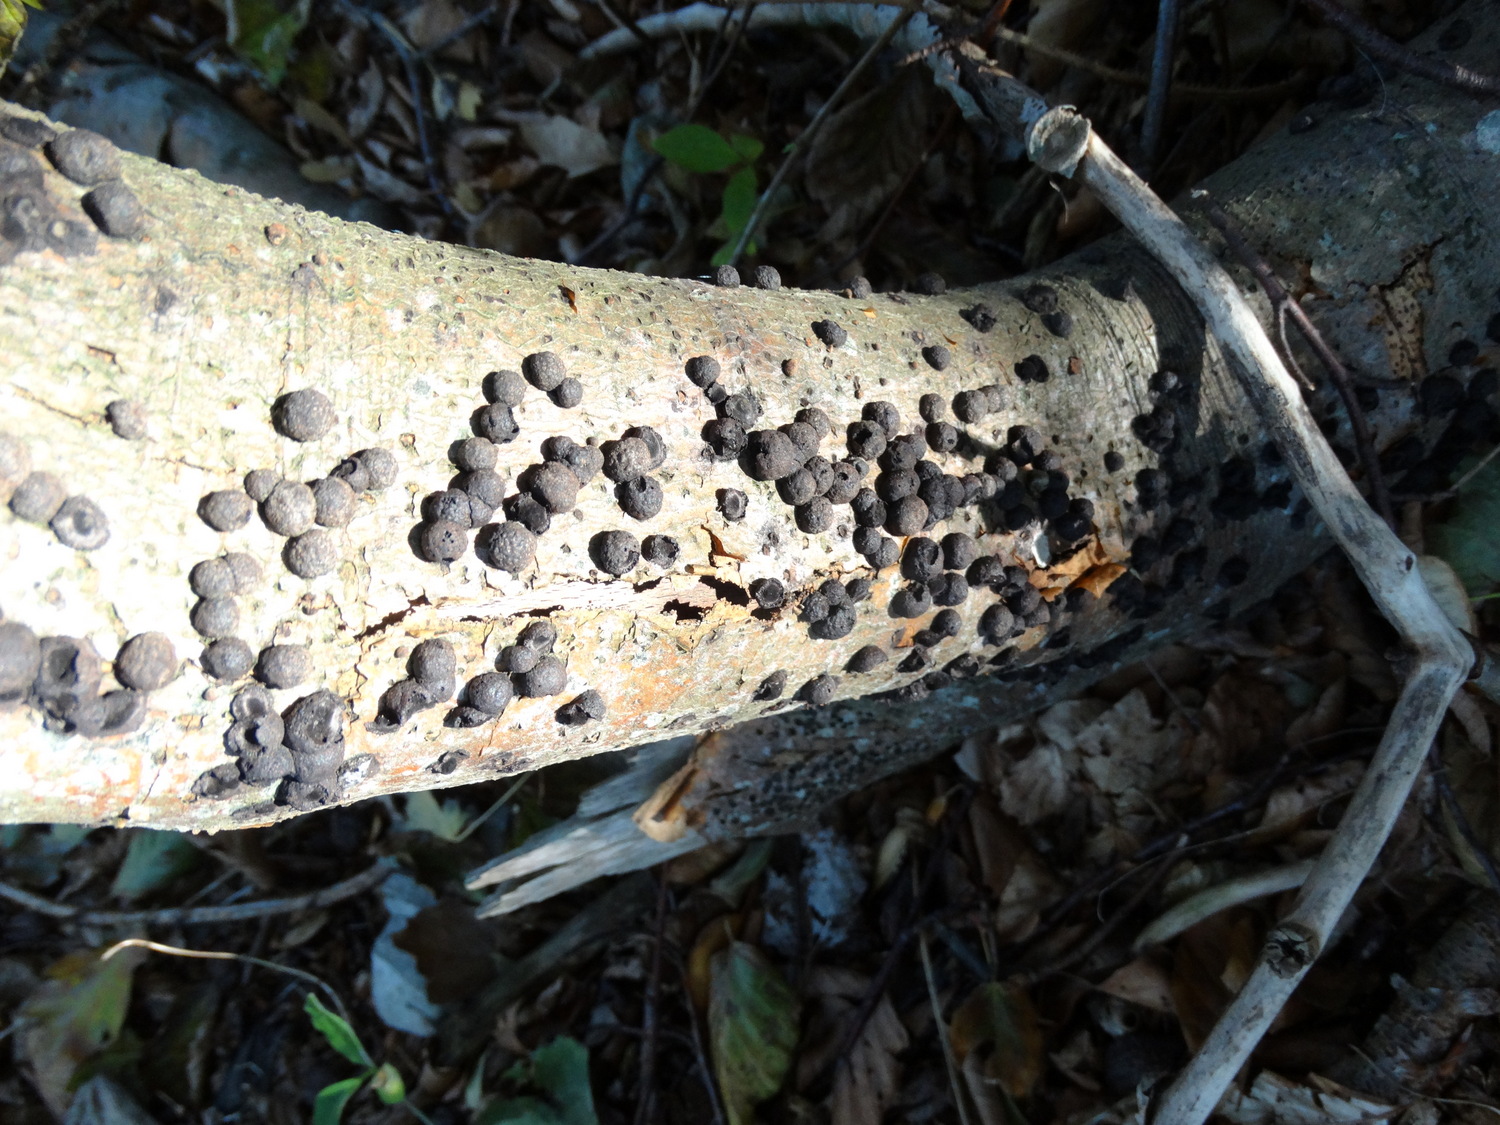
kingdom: Fungi
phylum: Ascomycota
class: Sordariomycetes
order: Xylariales
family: Hypoxylaceae
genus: Hypoxylon
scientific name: Hypoxylon fragiforme
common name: kuljordbær
